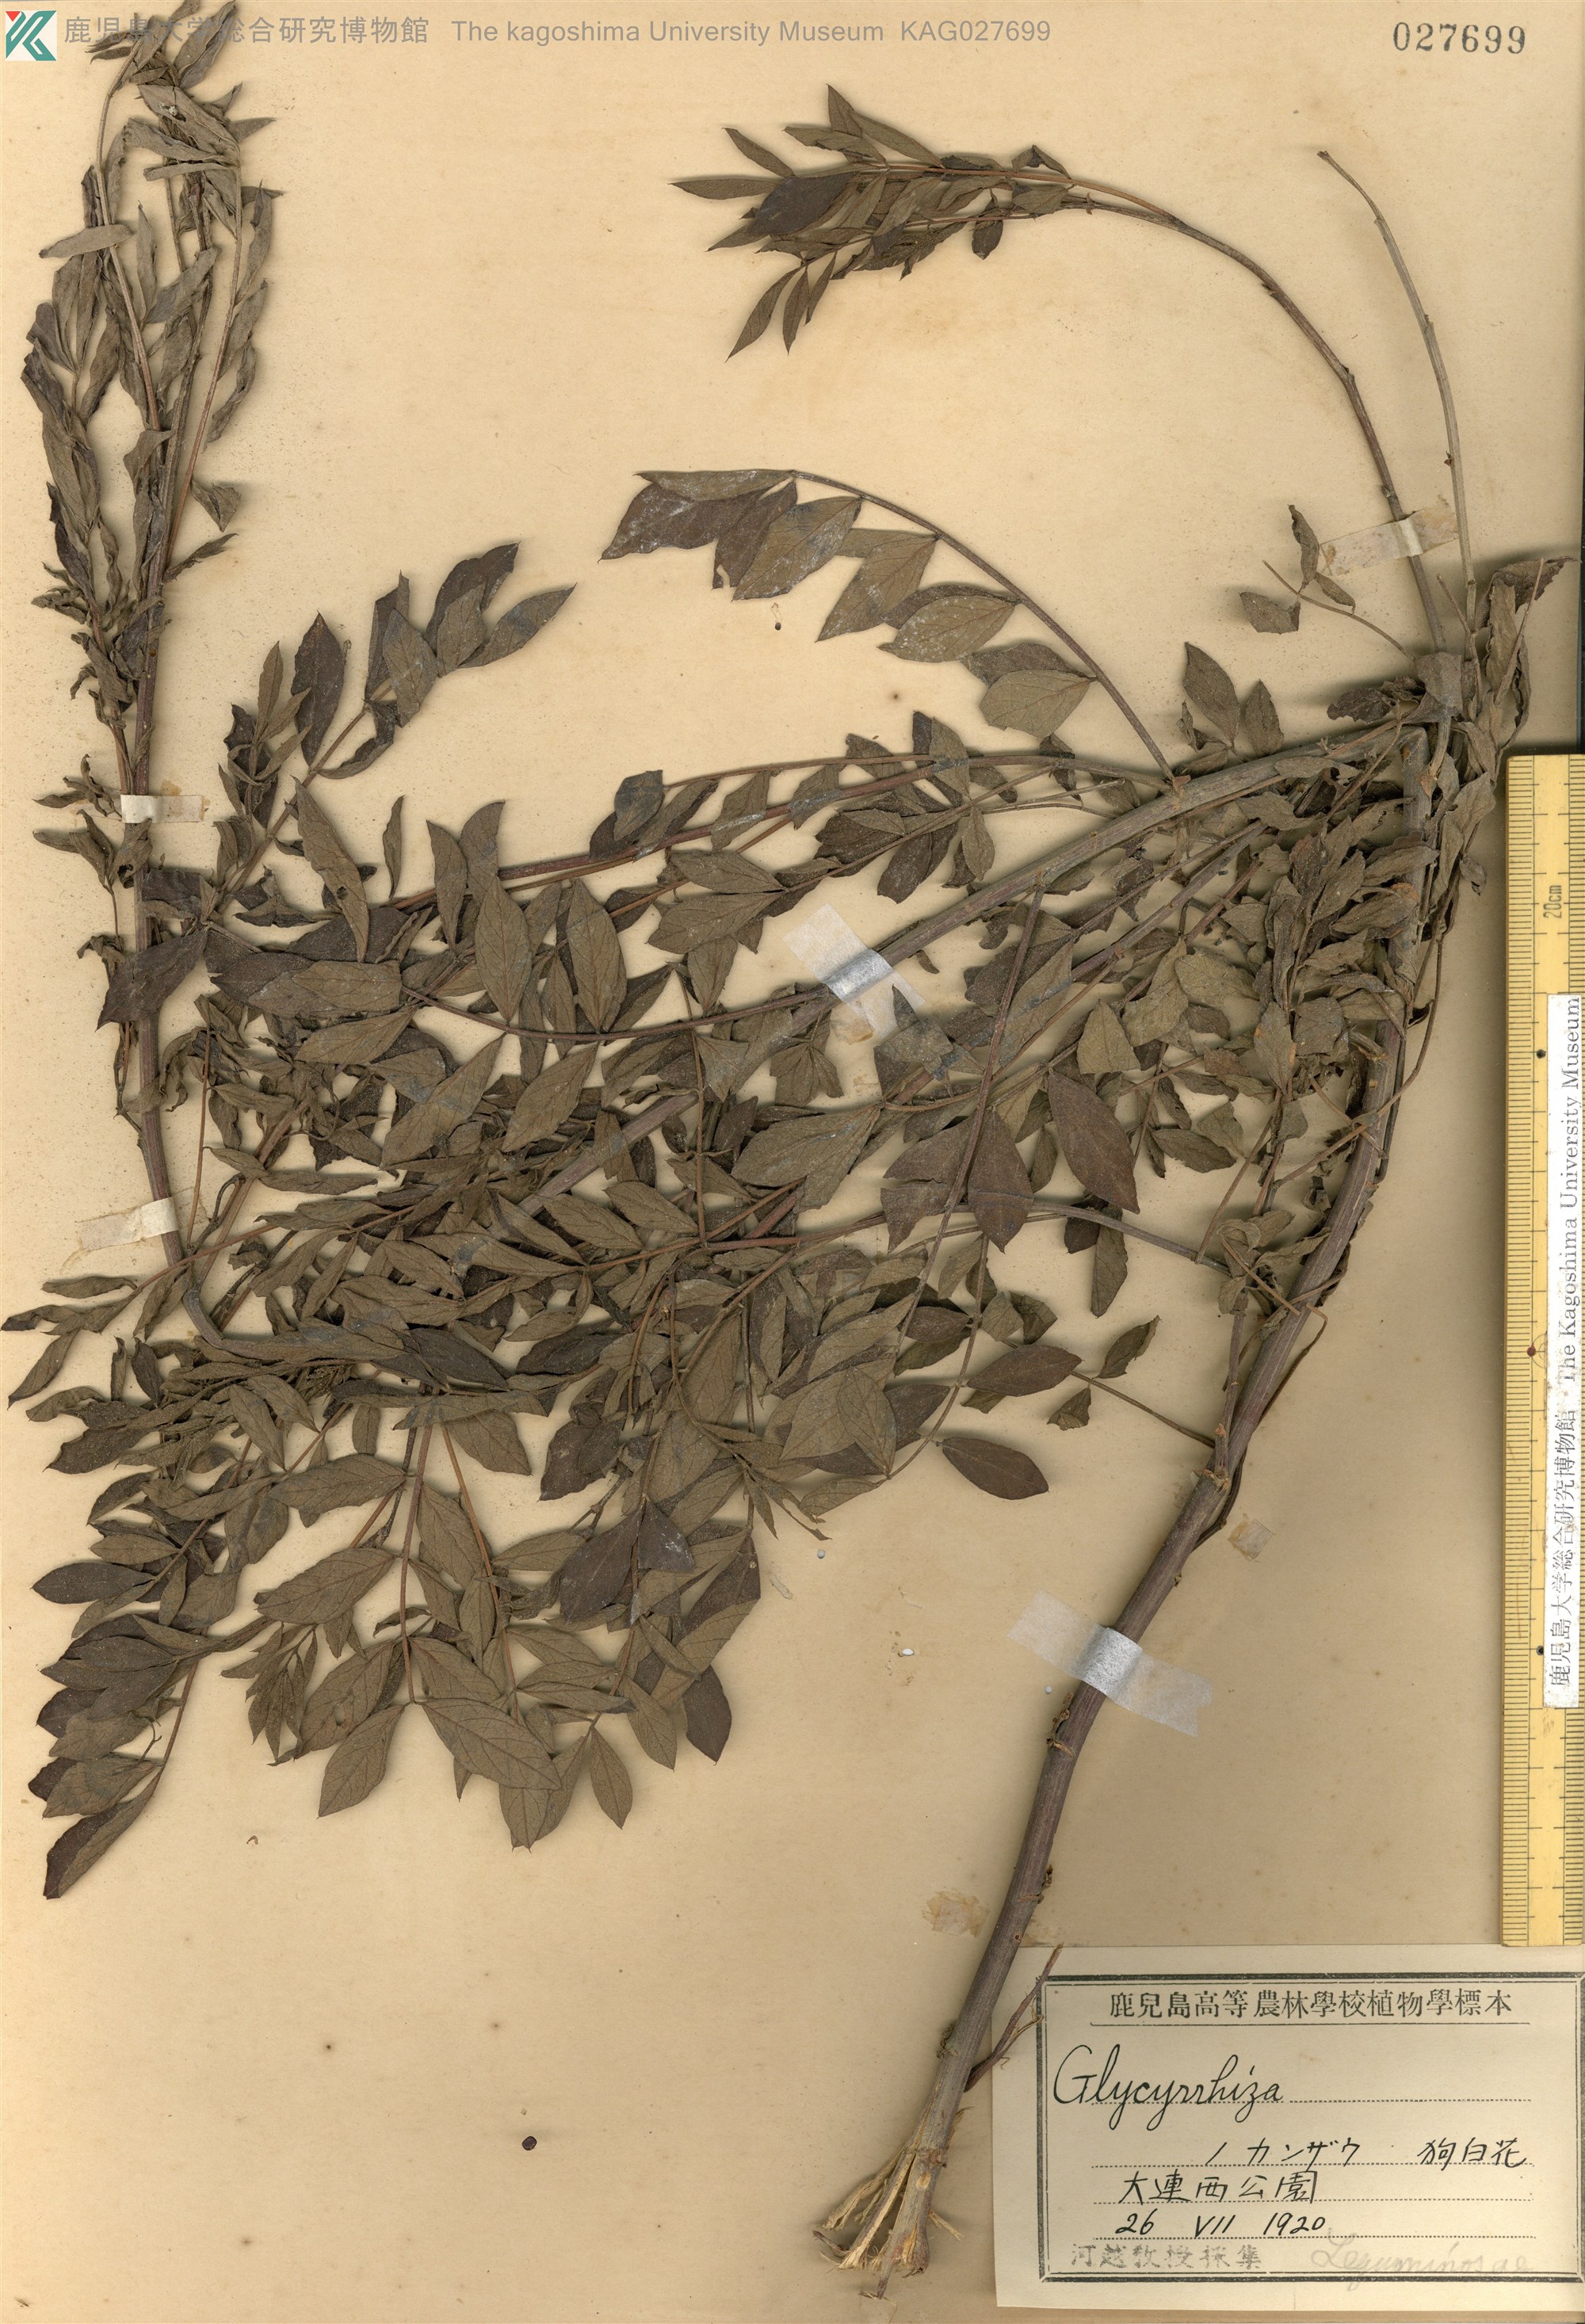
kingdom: Plantae
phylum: Tracheophyta
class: Magnoliopsida
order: Fabales
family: Fabaceae
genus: Glycyrrhiza
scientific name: Glycyrrhiza pallidiflora
